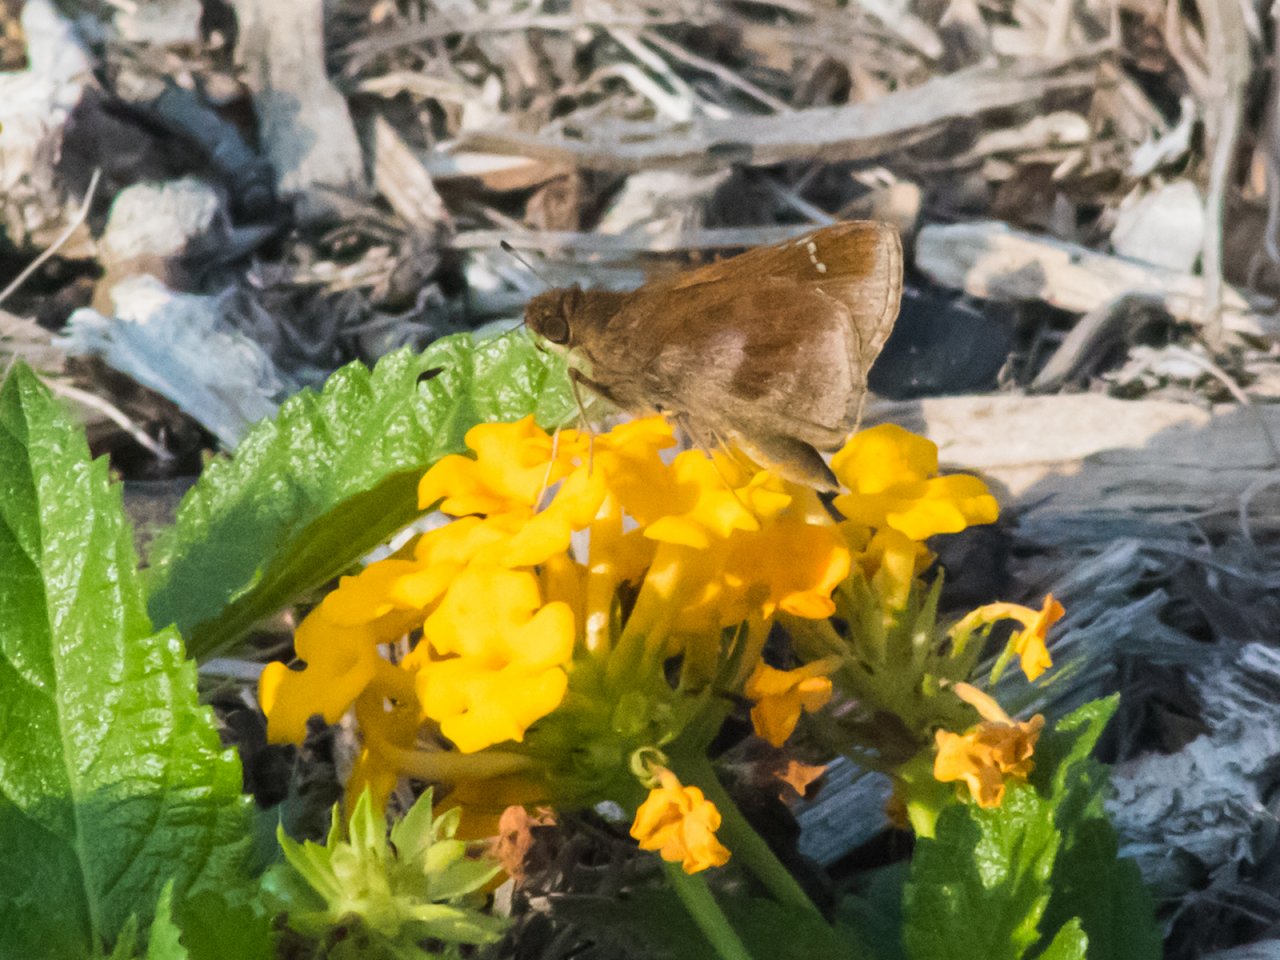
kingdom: Animalia
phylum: Arthropoda
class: Insecta
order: Lepidoptera
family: Hesperiidae
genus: Lerema
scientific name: Lerema accius
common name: Clouded Skipper
